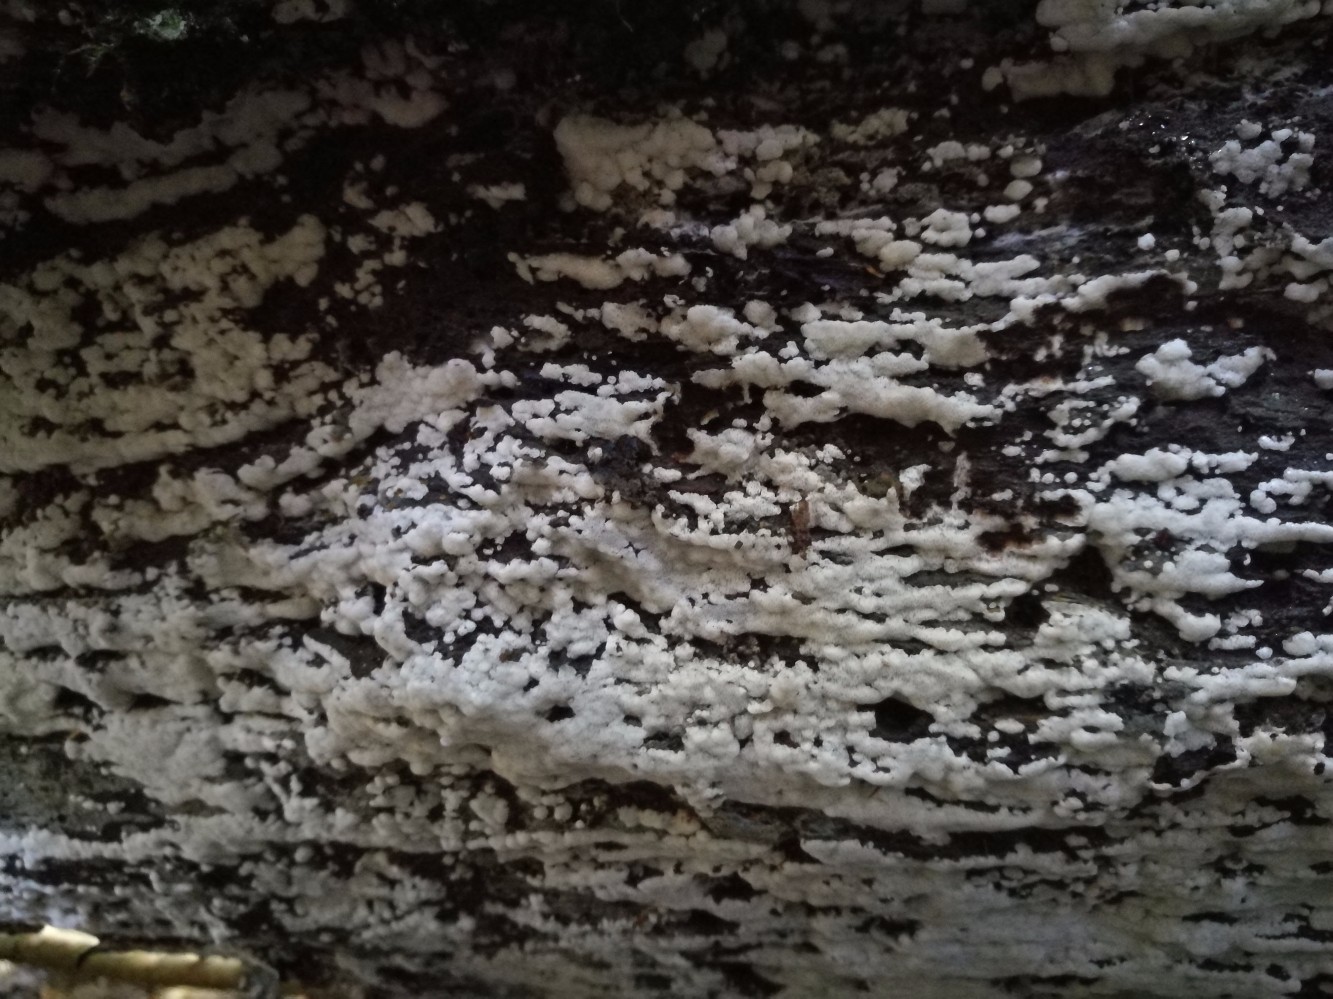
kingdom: Fungi
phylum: Basidiomycota
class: Agaricomycetes
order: Polyporales
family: Meripilaceae
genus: Rigidoporus
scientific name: Rigidoporus sanguinolentus
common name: blod-skorpeporesvamp
